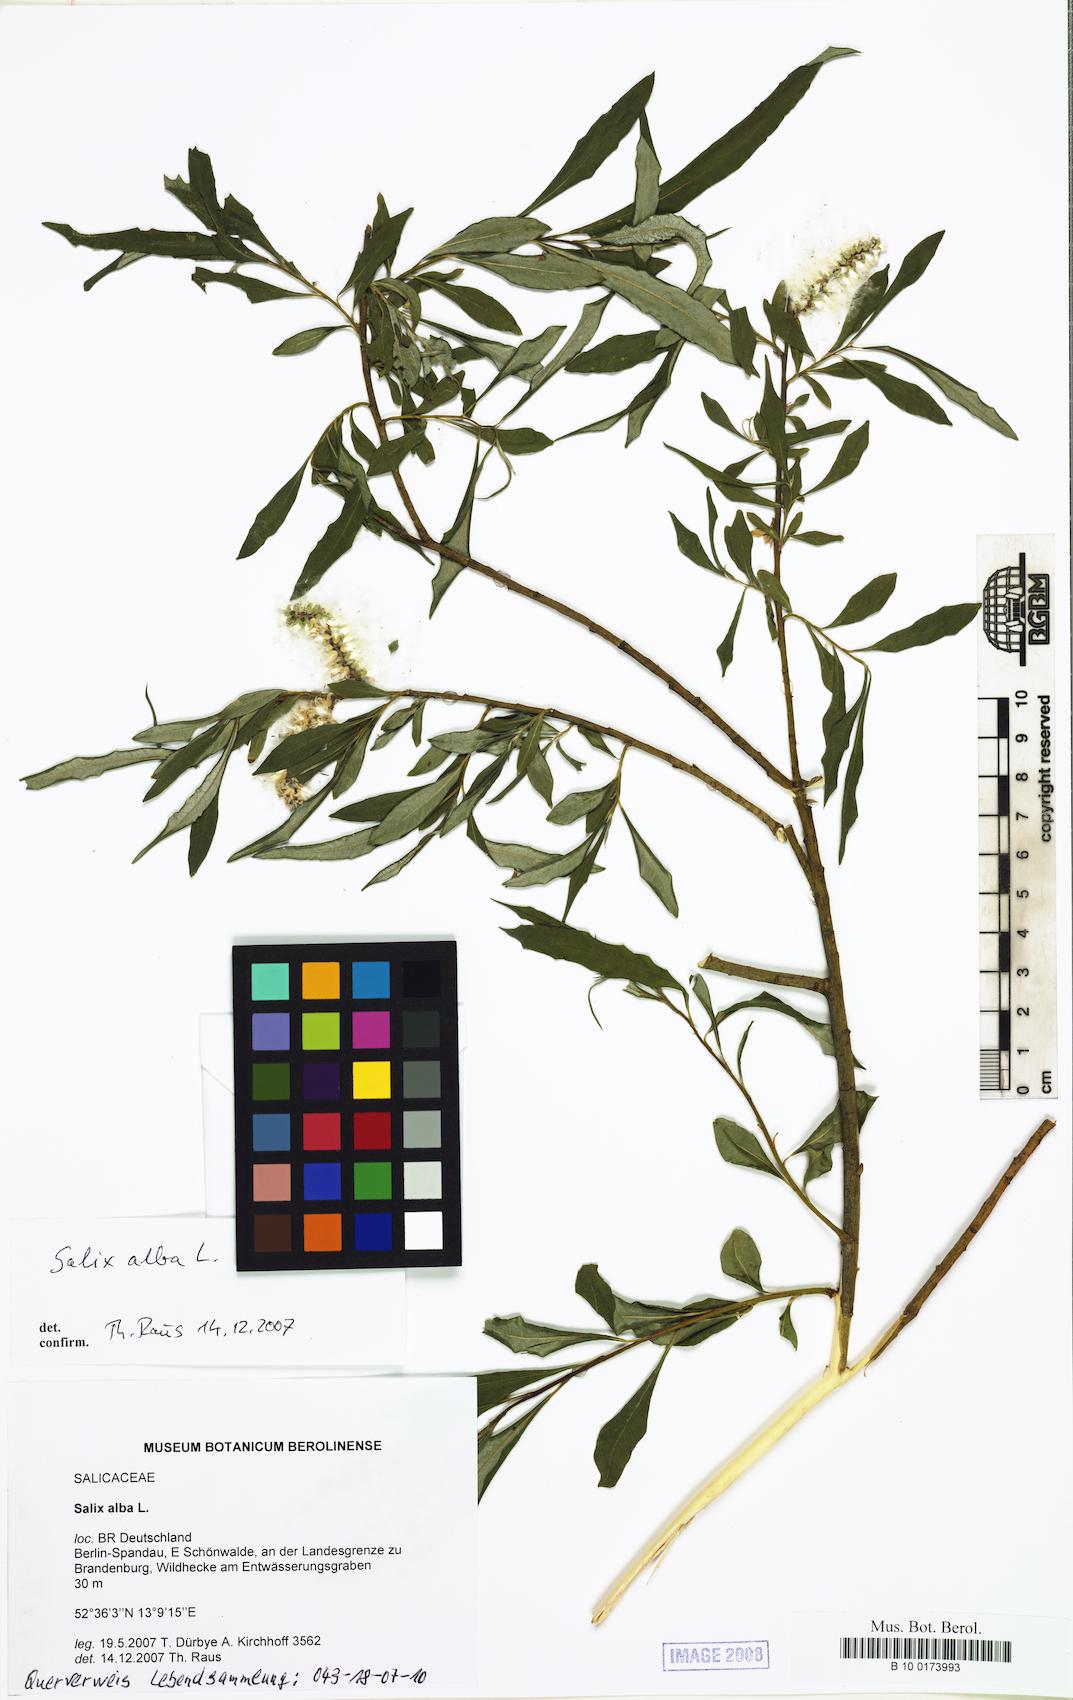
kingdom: Plantae
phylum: Tracheophyta
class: Magnoliopsida
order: Malpighiales
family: Salicaceae
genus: Salix
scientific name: Salix alba
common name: White willow
